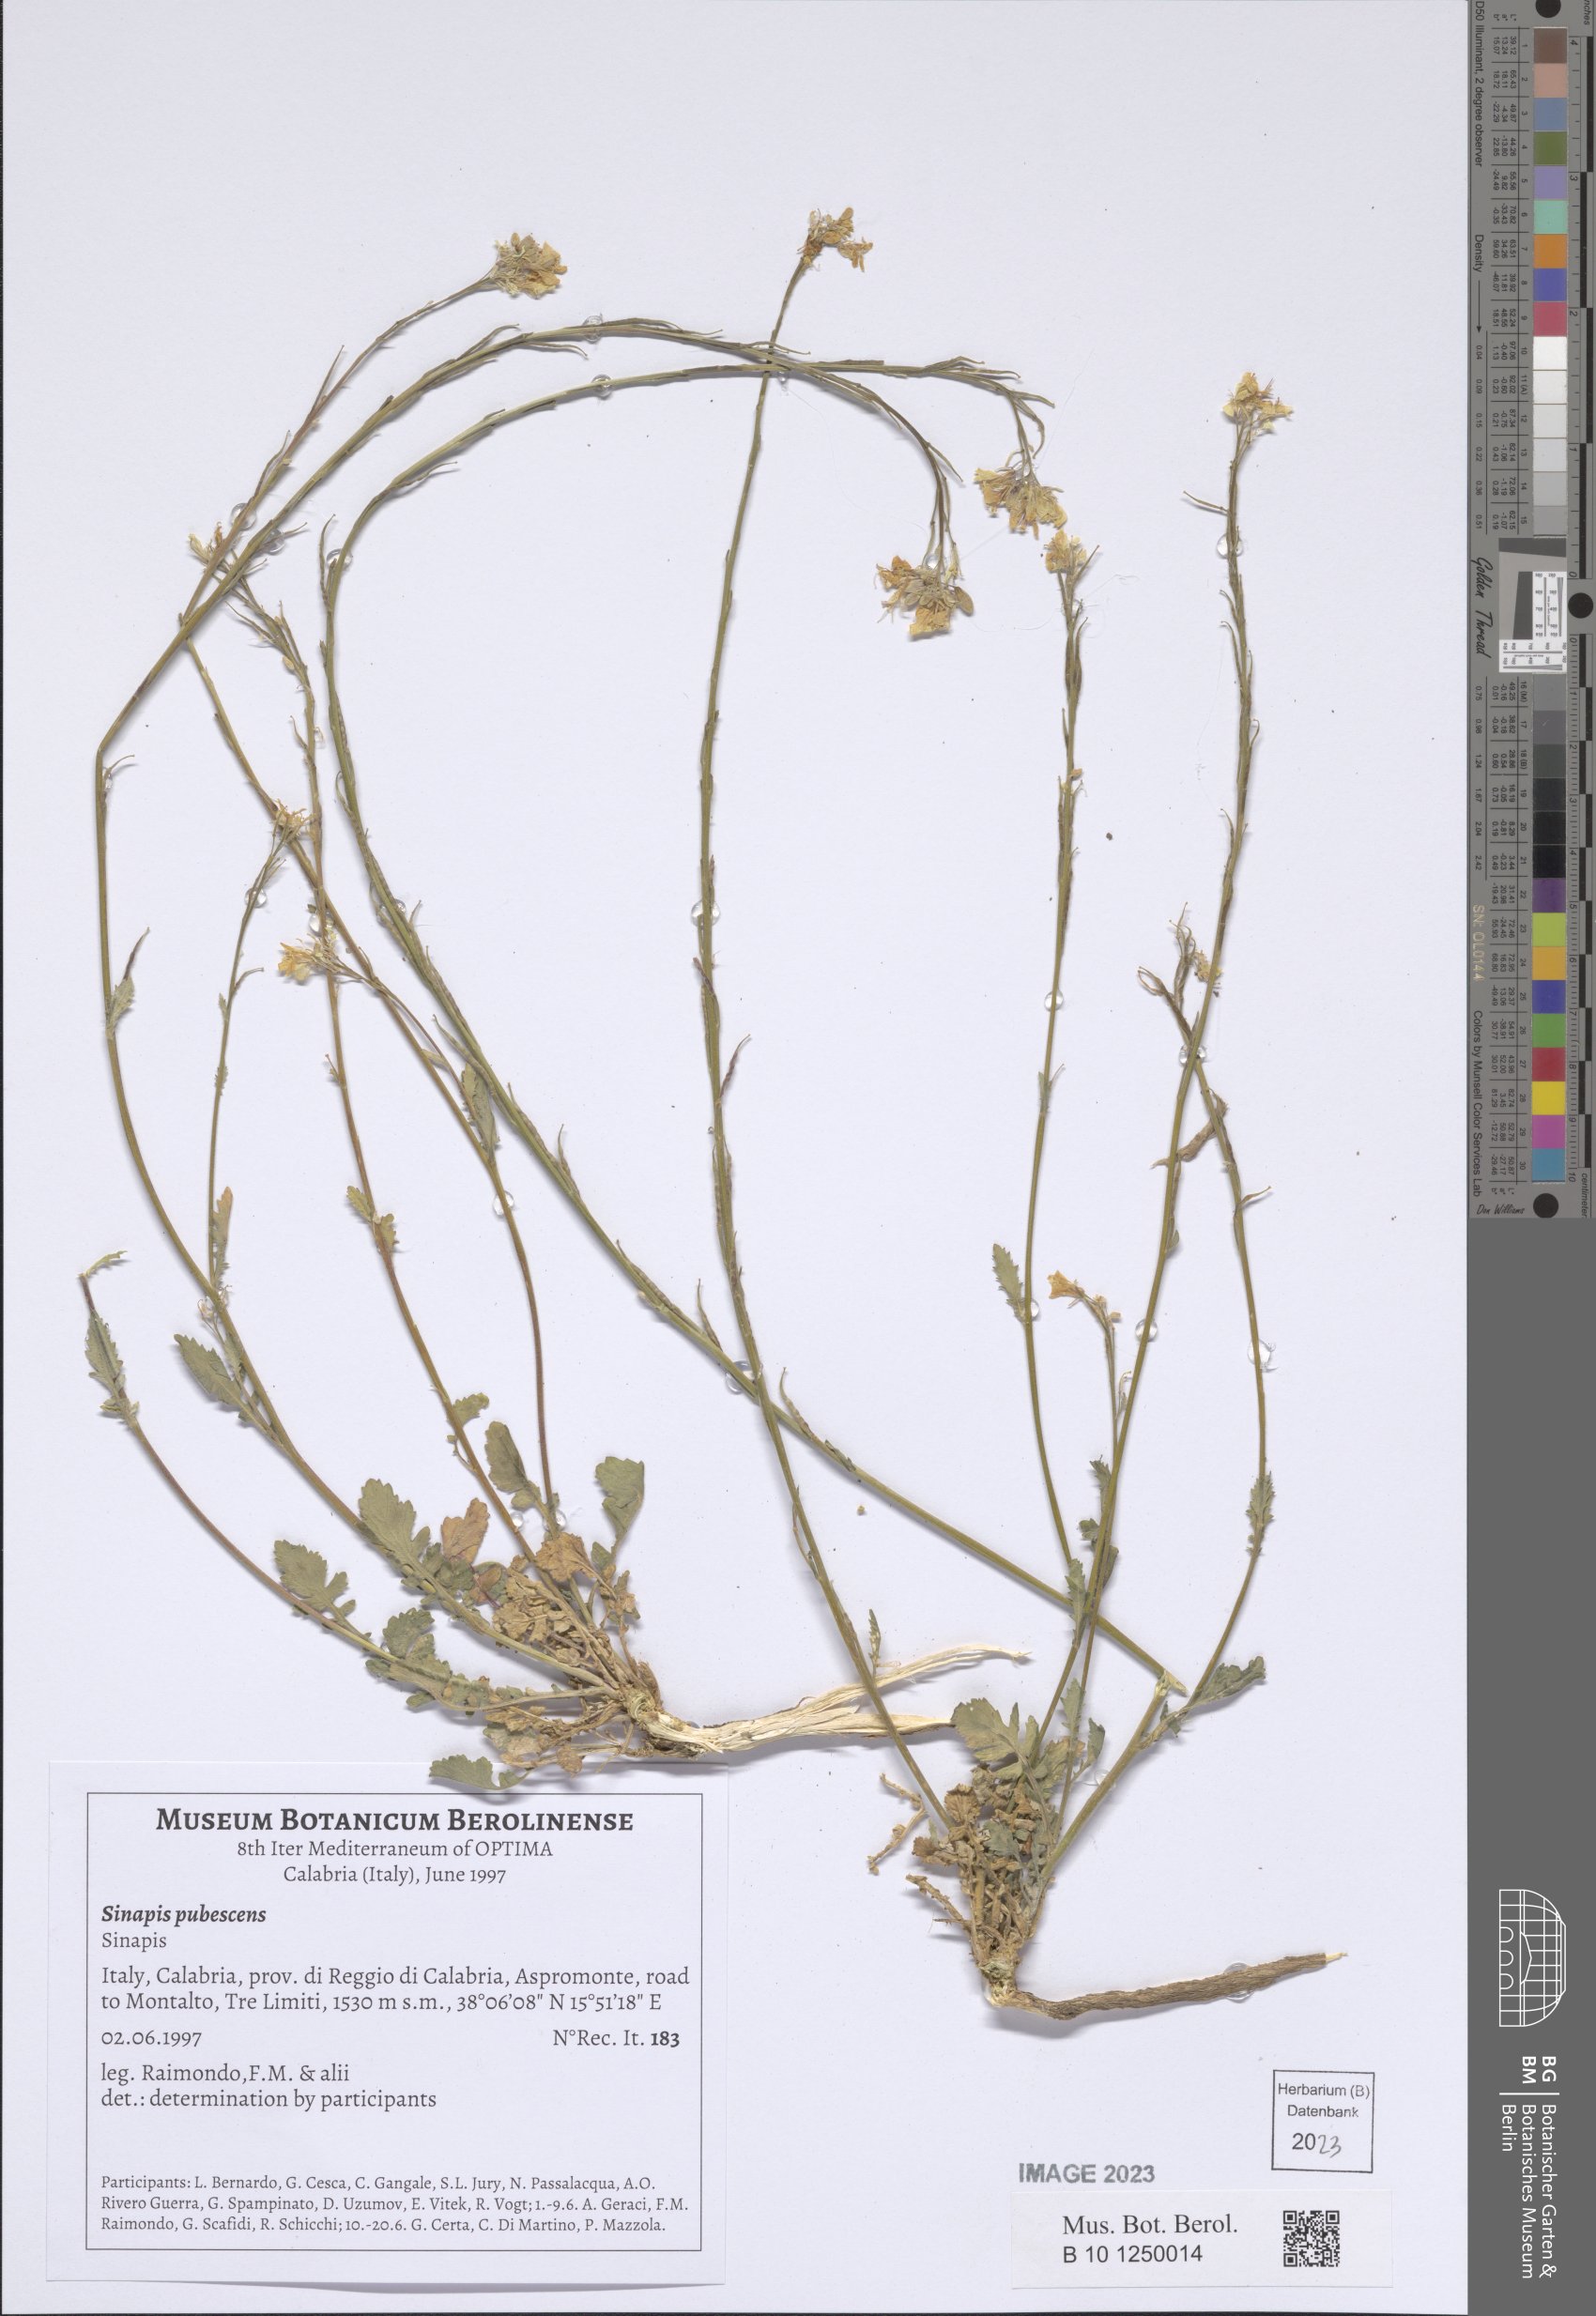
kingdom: Plantae
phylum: Tracheophyta
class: Magnoliopsida
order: Brassicales
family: Brassicaceae
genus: Sinapis
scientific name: Sinapis pubescens
